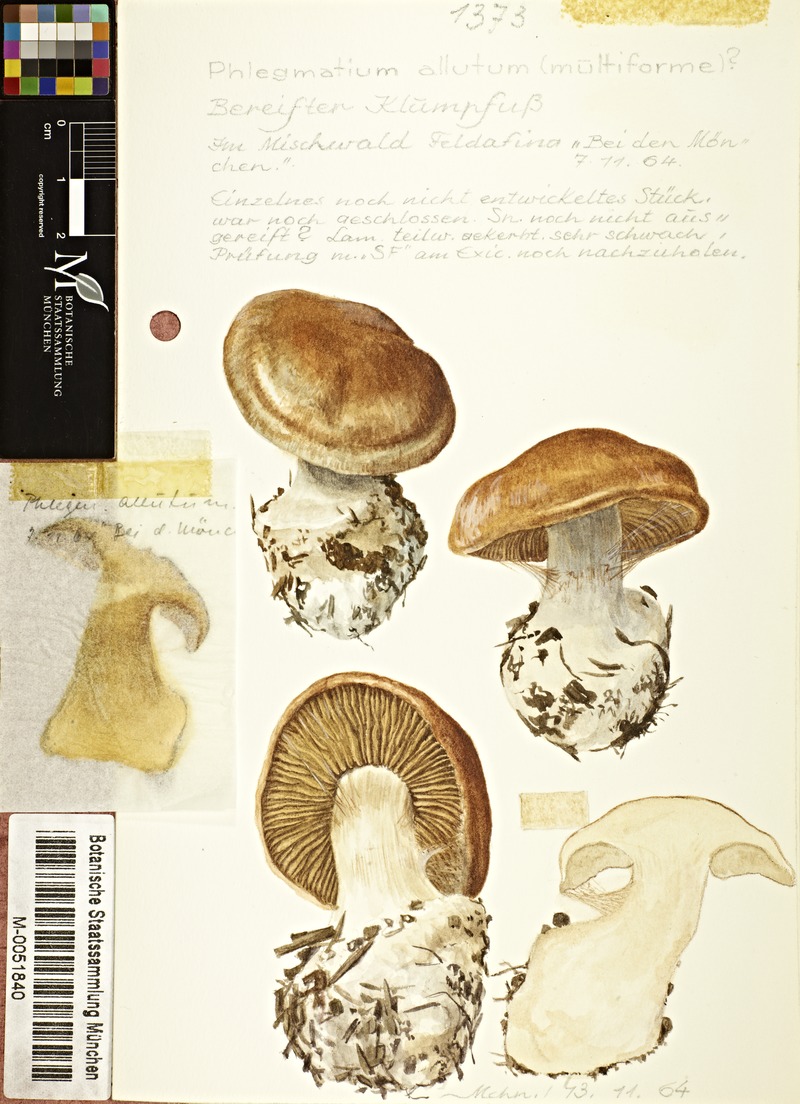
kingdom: Fungi
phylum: Basidiomycota
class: Agaricomycetes
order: Agaricales
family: Cortinariaceae
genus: Cortinarius
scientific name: Cortinarius allutus
